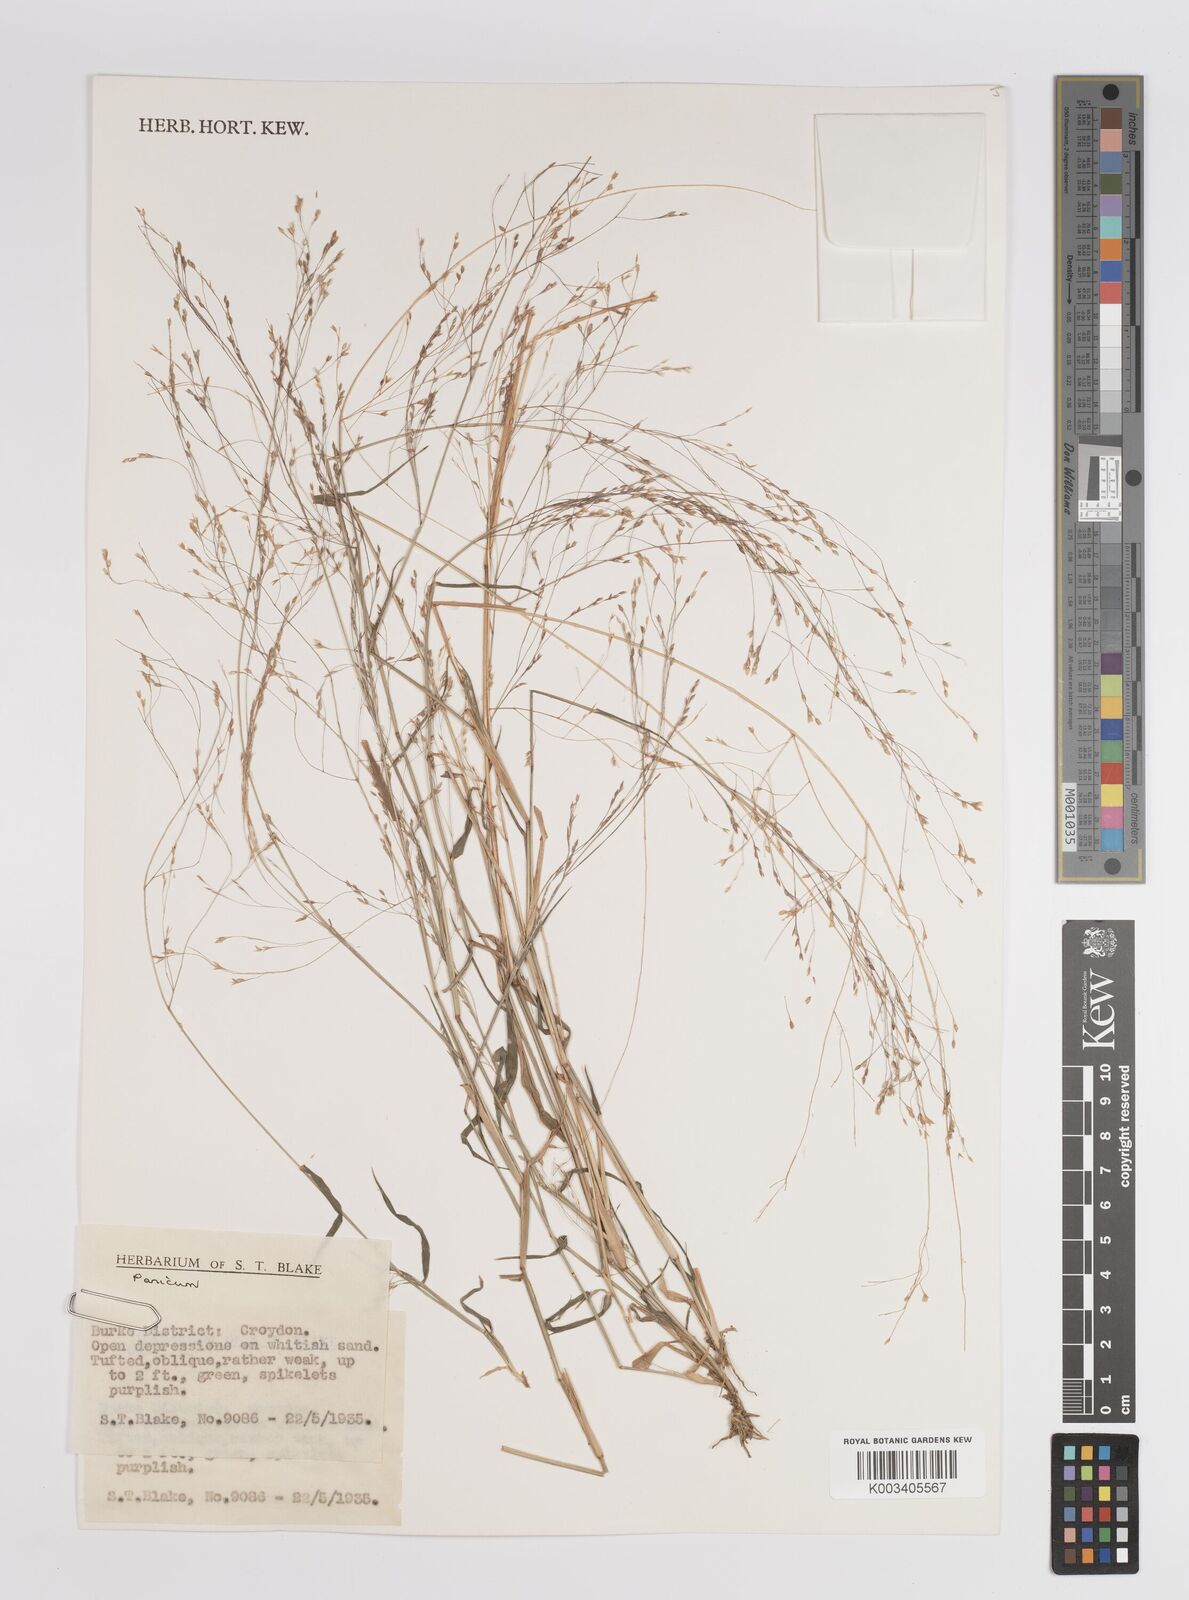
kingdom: Plantae
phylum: Tracheophyta
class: Liliopsida
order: Poales
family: Poaceae
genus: Panicum
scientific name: Panicum
